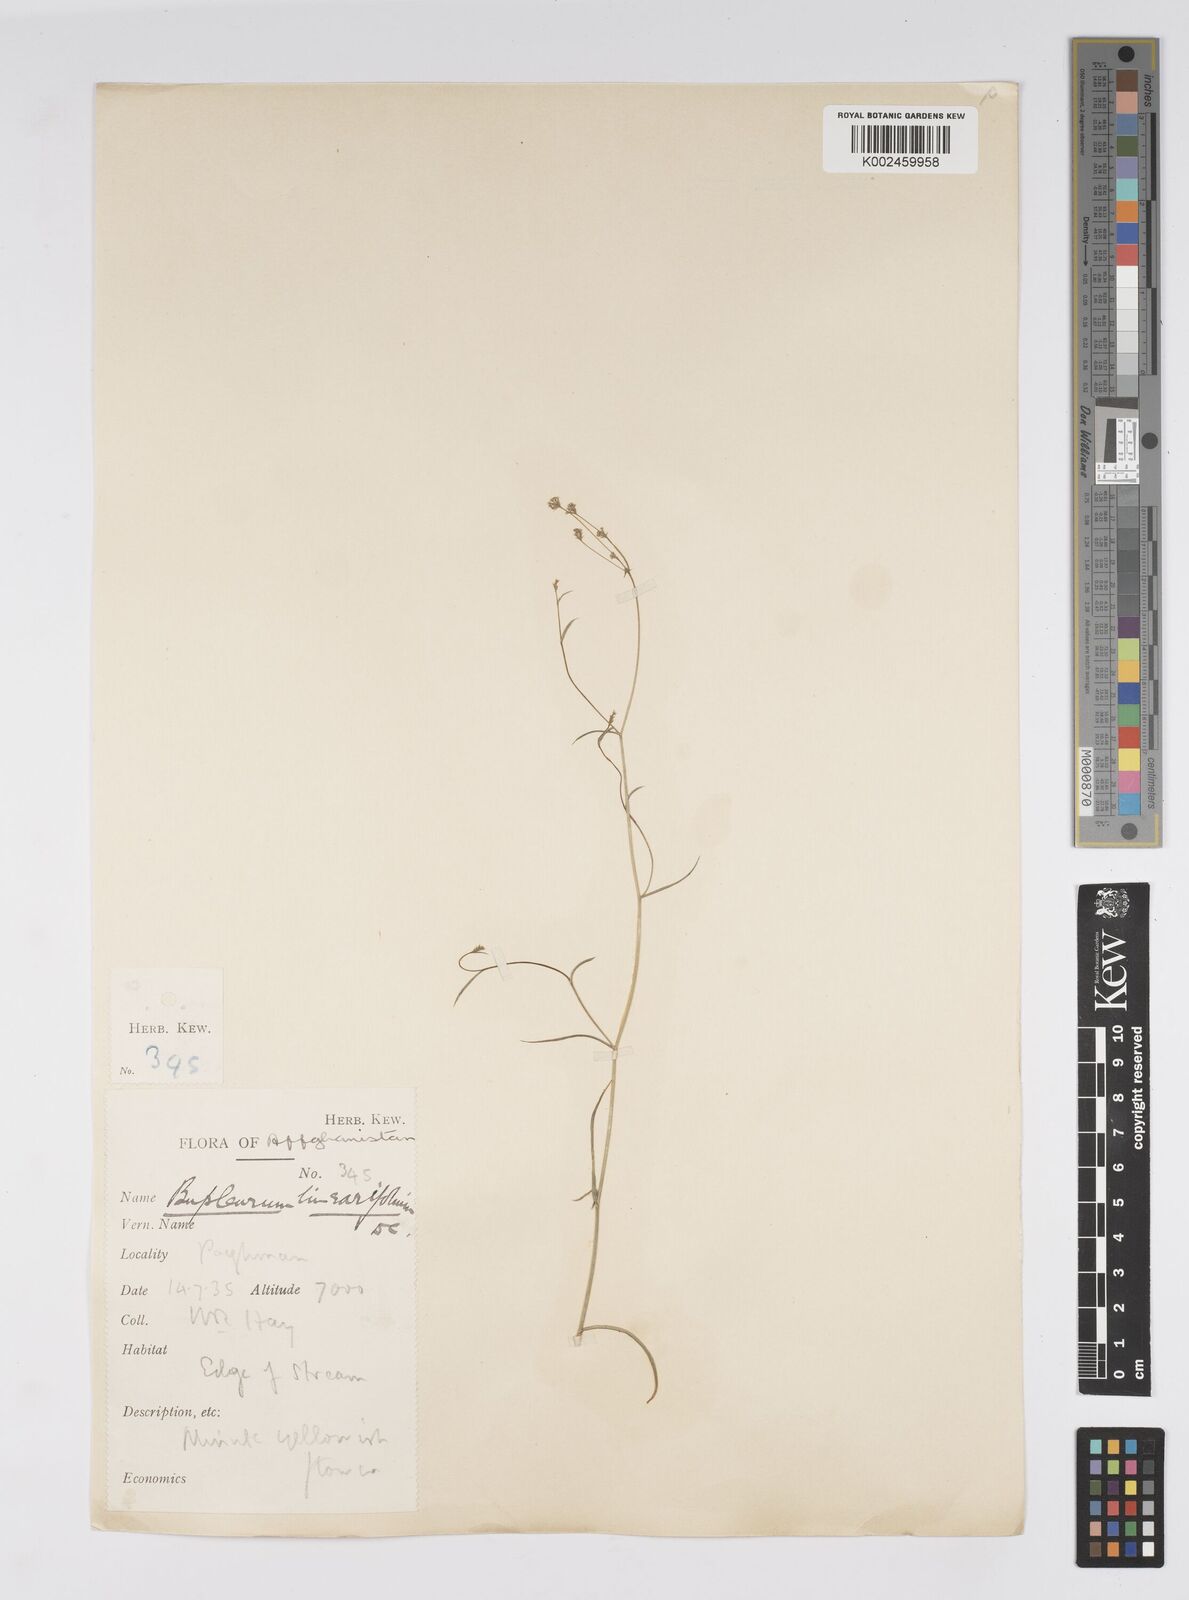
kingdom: Plantae
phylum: Tracheophyta
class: Magnoliopsida
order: Apiales
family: Apiaceae
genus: Bupleurum
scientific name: Bupleurum falcatum
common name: Sickle-leaved hare's-ear
